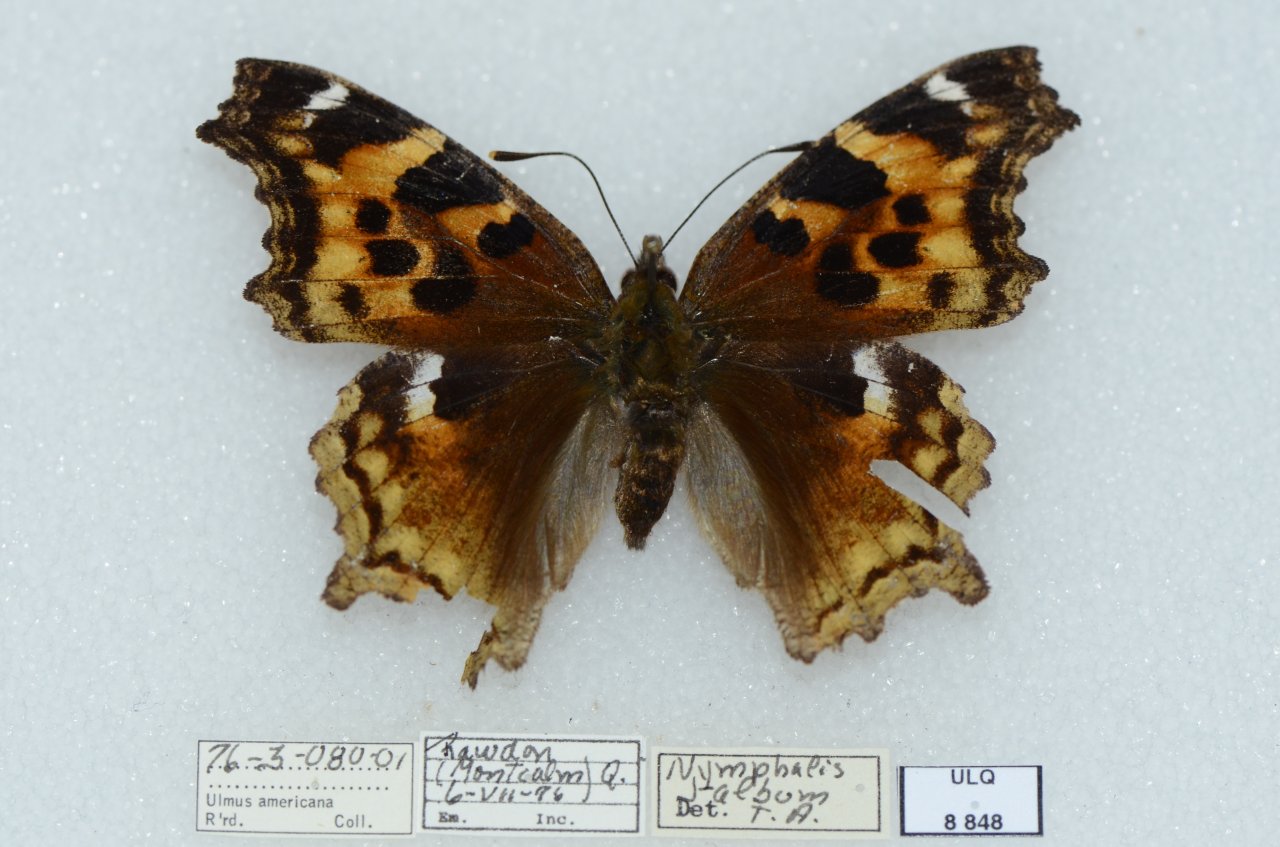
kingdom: Animalia
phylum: Arthropoda
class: Insecta
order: Lepidoptera
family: Nymphalidae
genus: Polygonia
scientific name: Polygonia vaualbum
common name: Compton Tortoiseshell
